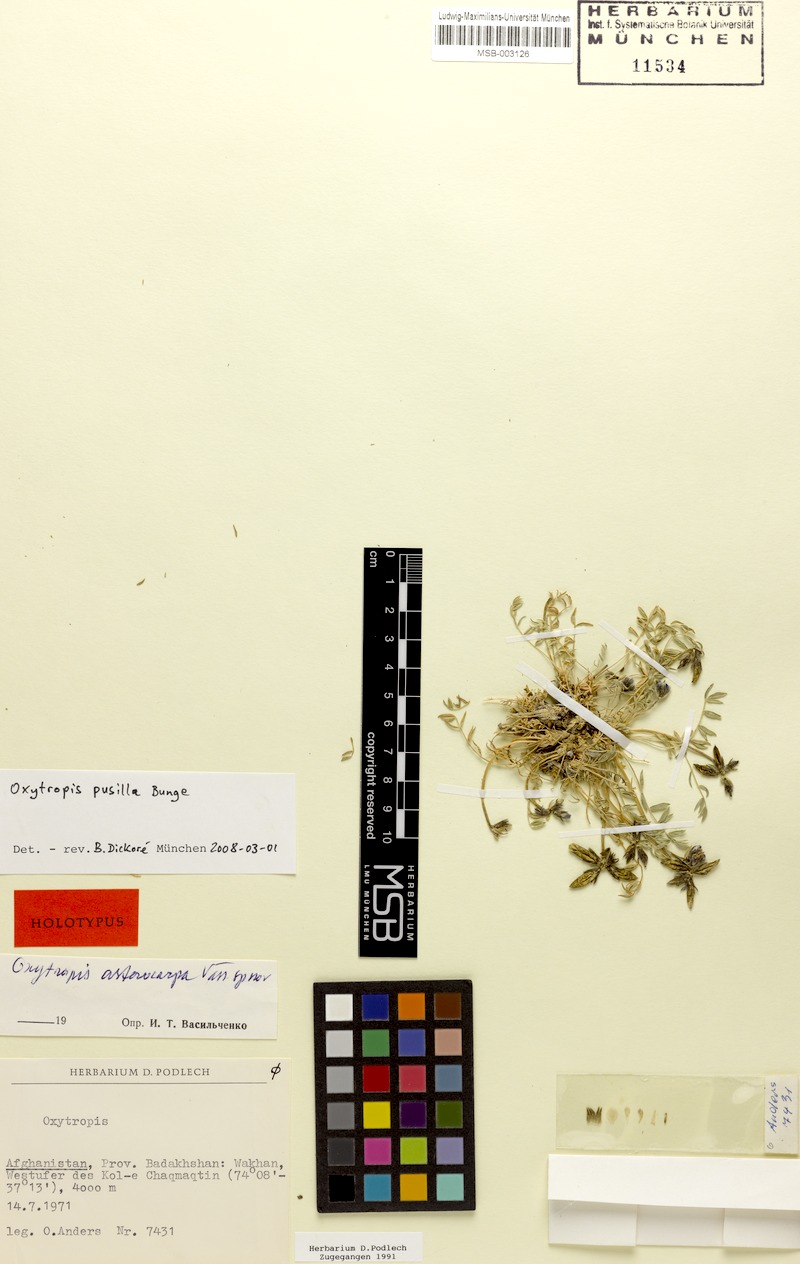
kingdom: Plantae
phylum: Tracheophyta
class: Magnoliopsida
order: Fabales
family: Fabaceae
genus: Oxytropis
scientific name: Oxytropis pusilla
